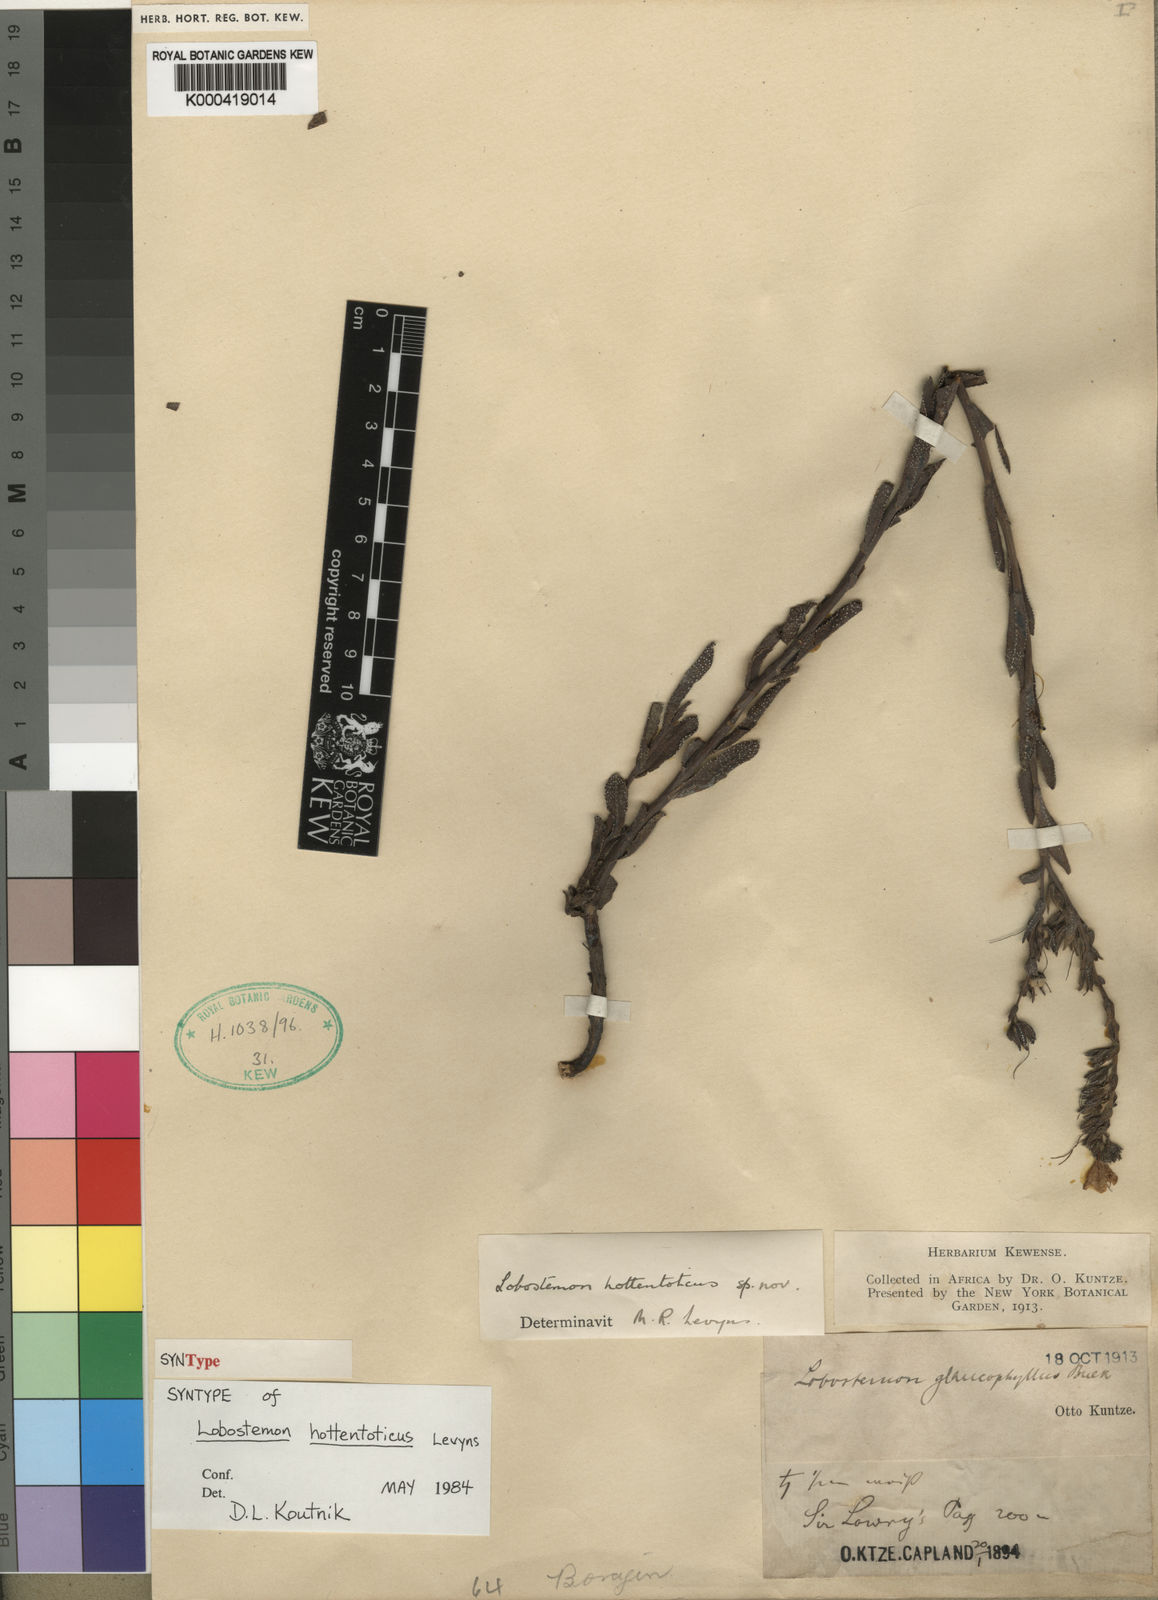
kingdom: Plantae
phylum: Tracheophyta
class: Magnoliopsida
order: Boraginales
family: Boraginaceae
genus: Lobostemon
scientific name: Lobostemon hottentoticus
